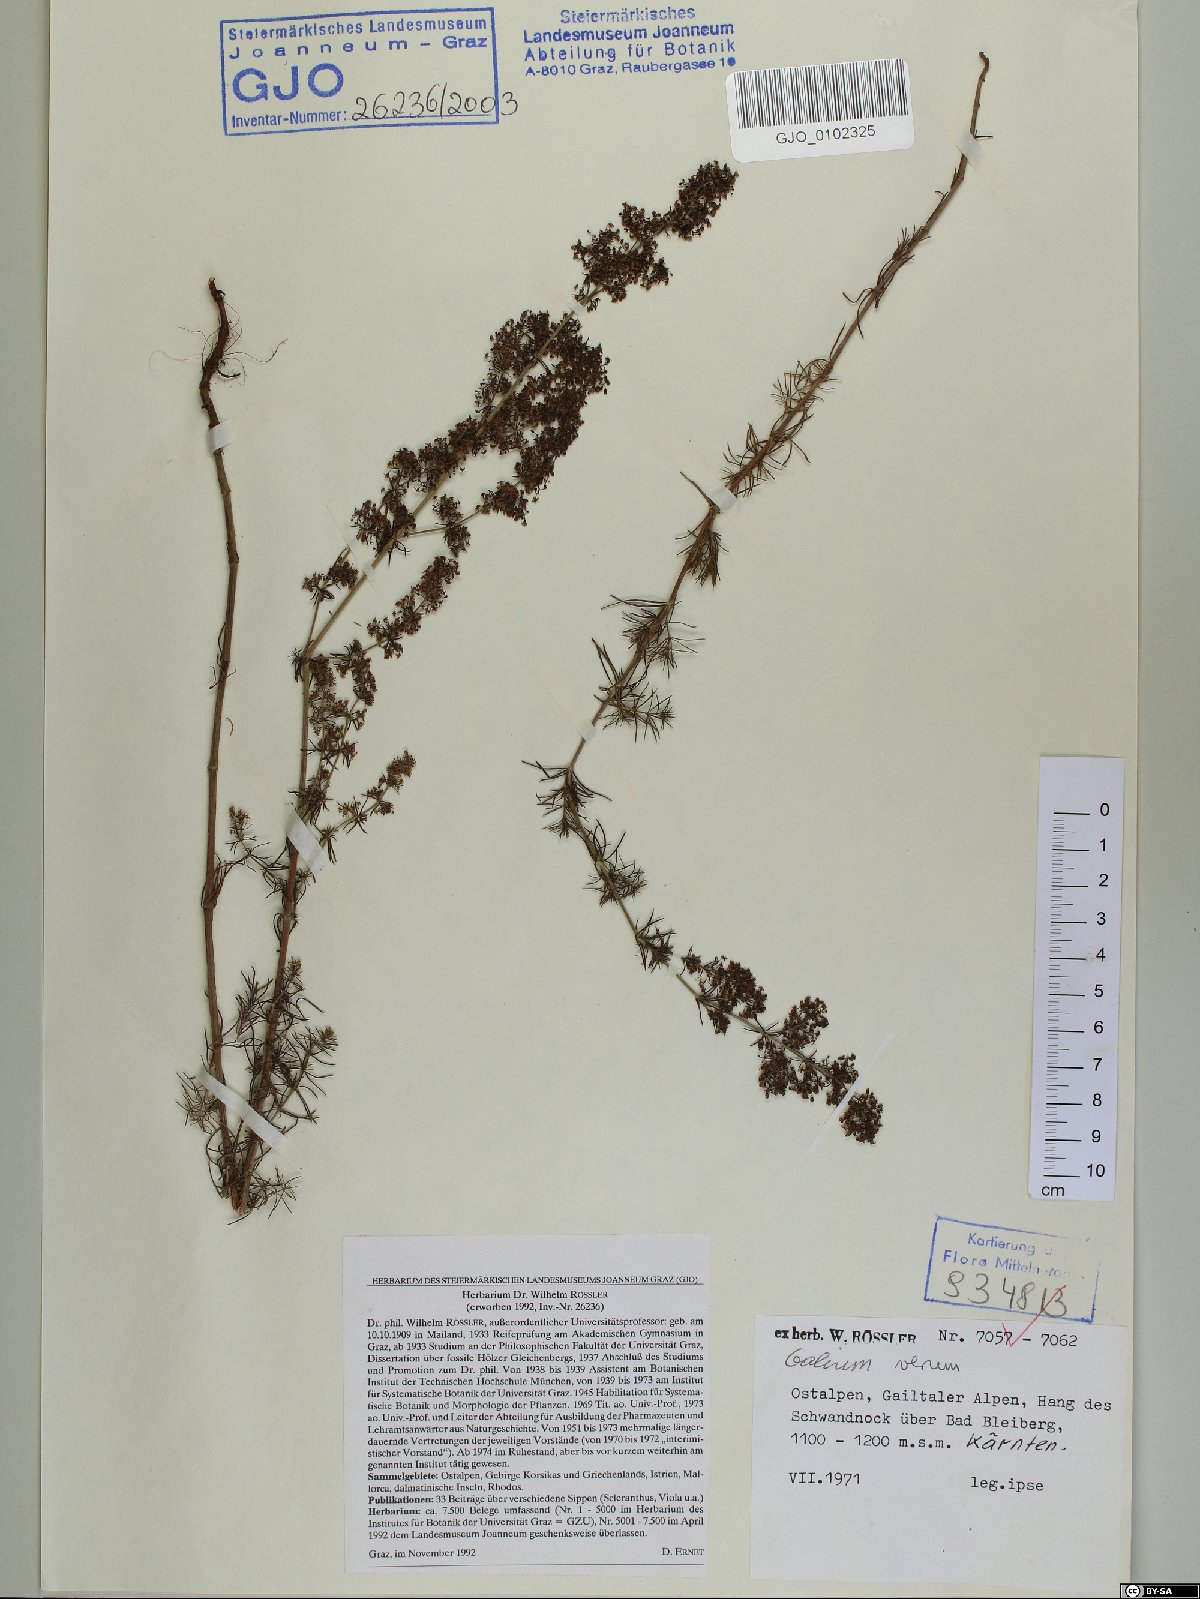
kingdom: Plantae
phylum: Tracheophyta
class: Magnoliopsida
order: Gentianales
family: Rubiaceae
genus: Galium
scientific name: Galium verum
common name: Lady's bedstraw
